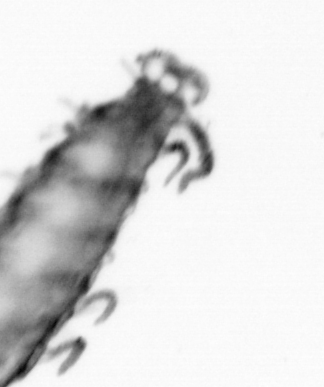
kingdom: Animalia
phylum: Annelida
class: Polychaeta
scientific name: Polychaeta
